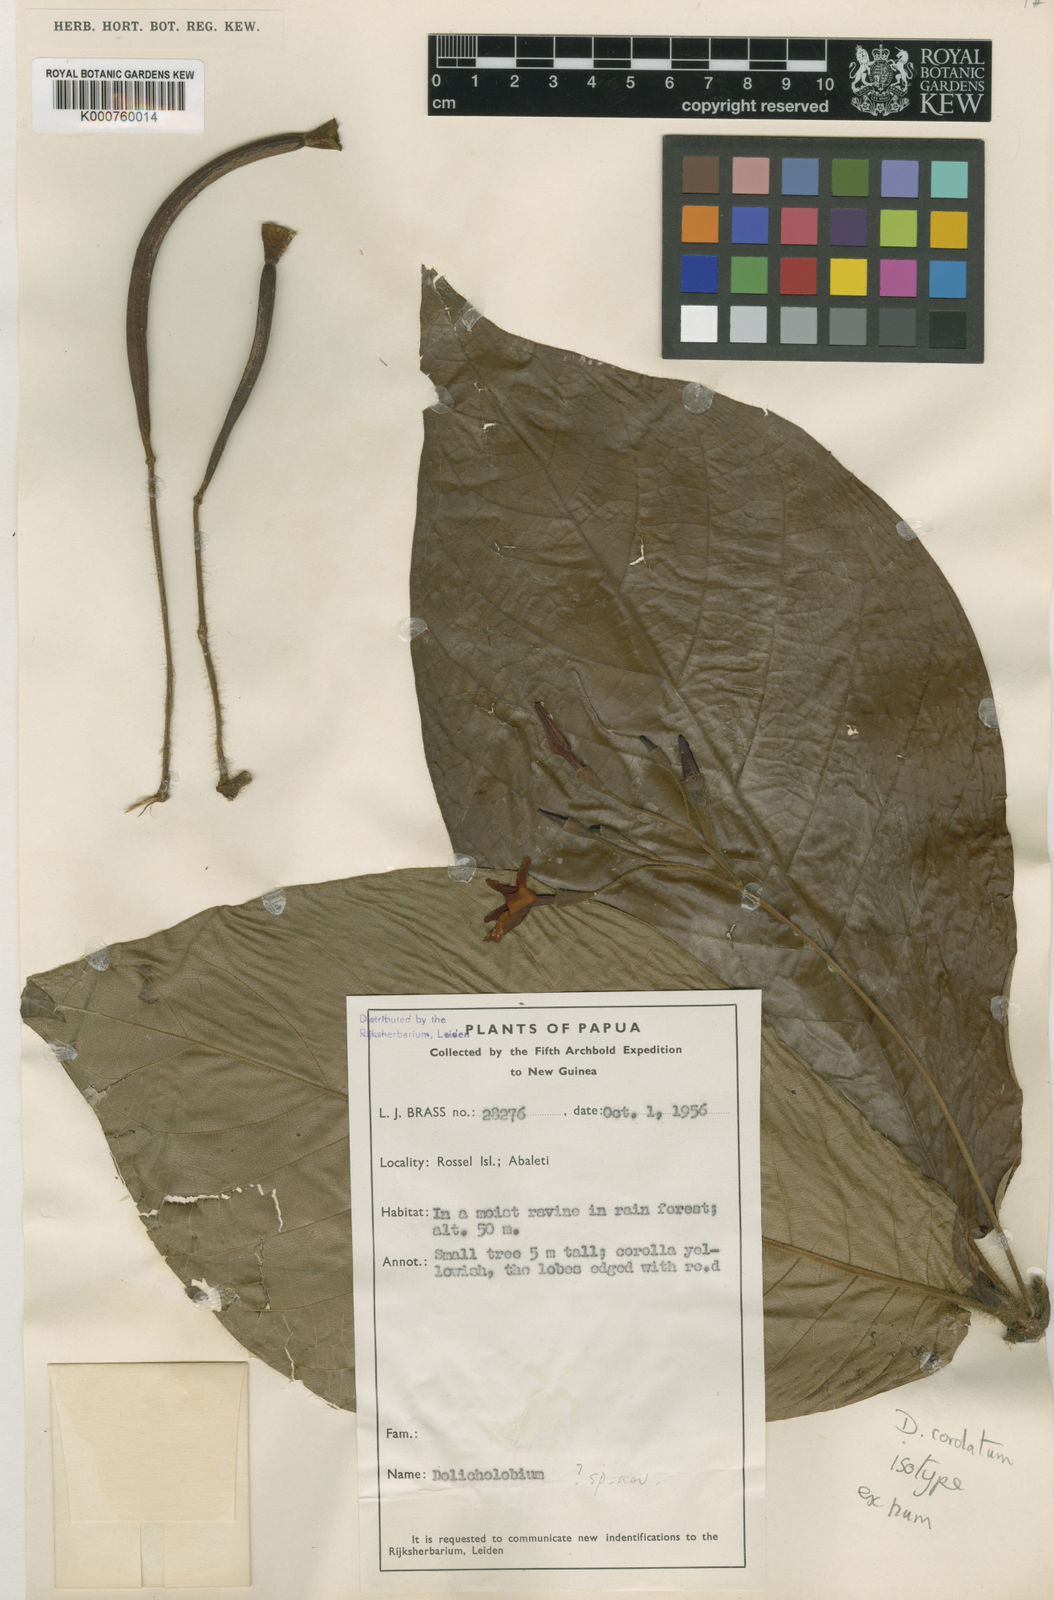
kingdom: Plantae
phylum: Tracheophyta
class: Magnoliopsida
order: Gentianales
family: Rubiaceae
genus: Dolicholobium
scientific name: Dolicholobium cordatum
